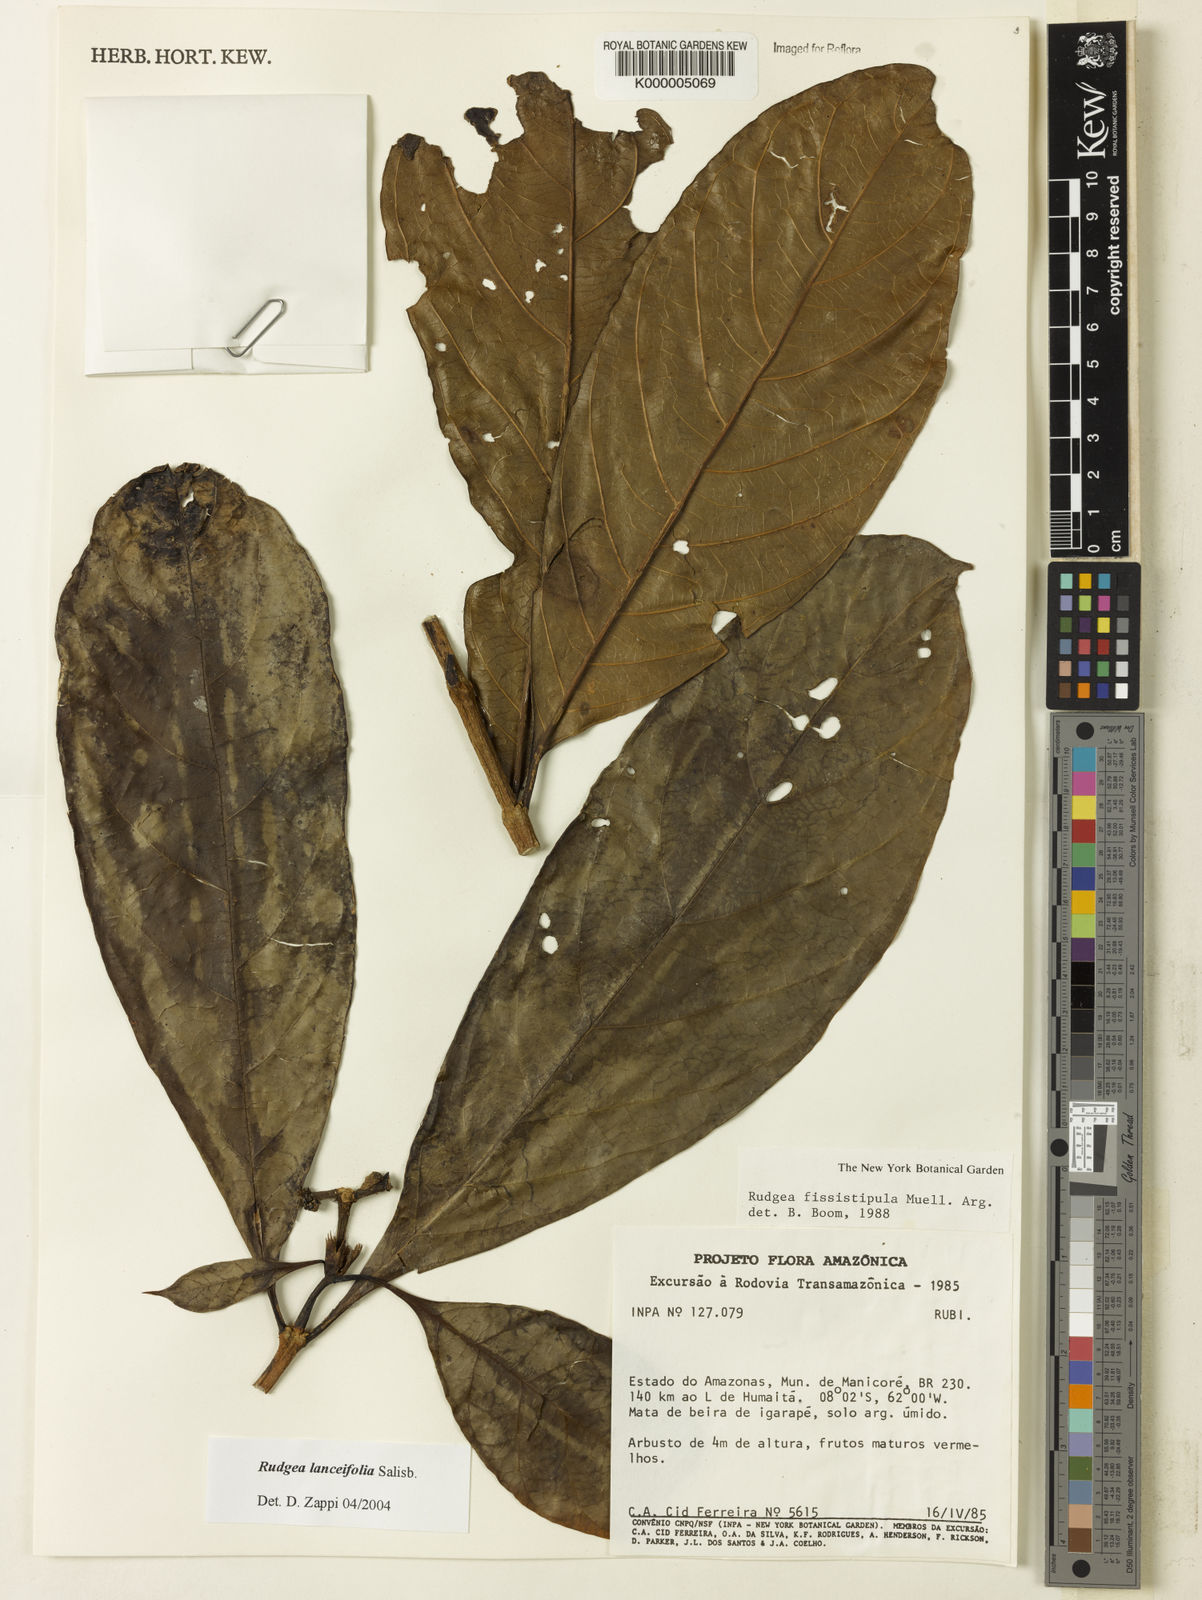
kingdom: Plantae
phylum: Tracheophyta
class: Magnoliopsida
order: Gentianales
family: Rubiaceae
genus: Rudgea
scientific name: Rudgea lanceifolia
